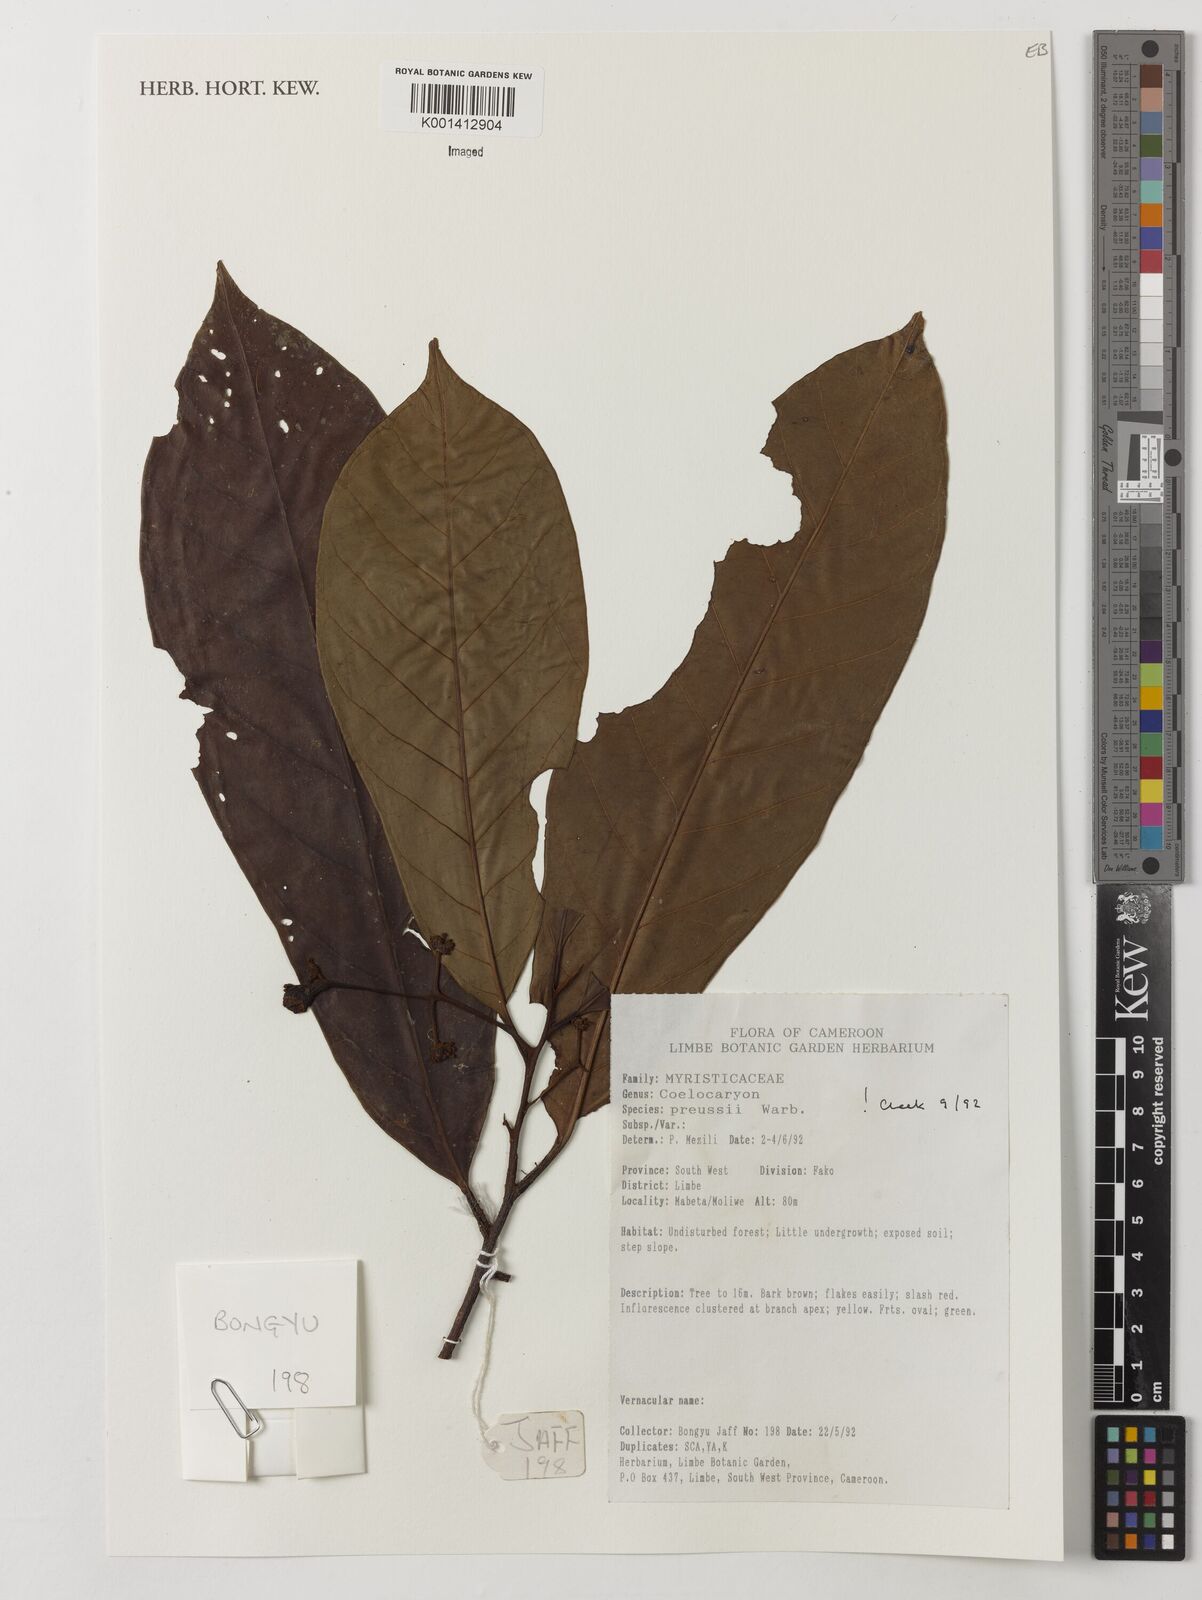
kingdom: Plantae
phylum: Tracheophyta
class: Magnoliopsida
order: Magnoliales
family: Myristicaceae
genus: Coelocaryon
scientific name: Coelocaryon preussii
